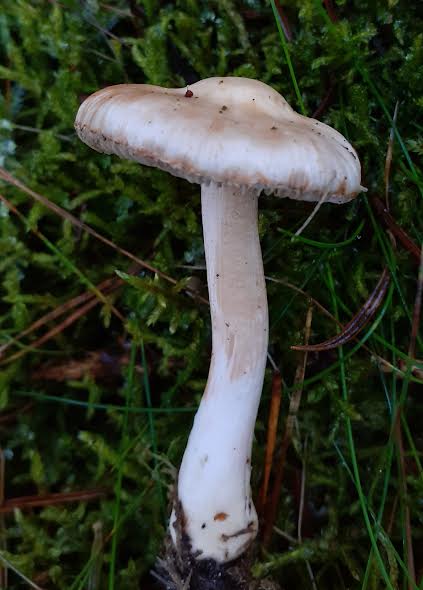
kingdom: Fungi
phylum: Basidiomycota
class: Agaricomycetes
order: Agaricales
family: Inocybaceae
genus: Inocybe
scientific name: Inocybe whitei
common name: Blushing fibrecap
